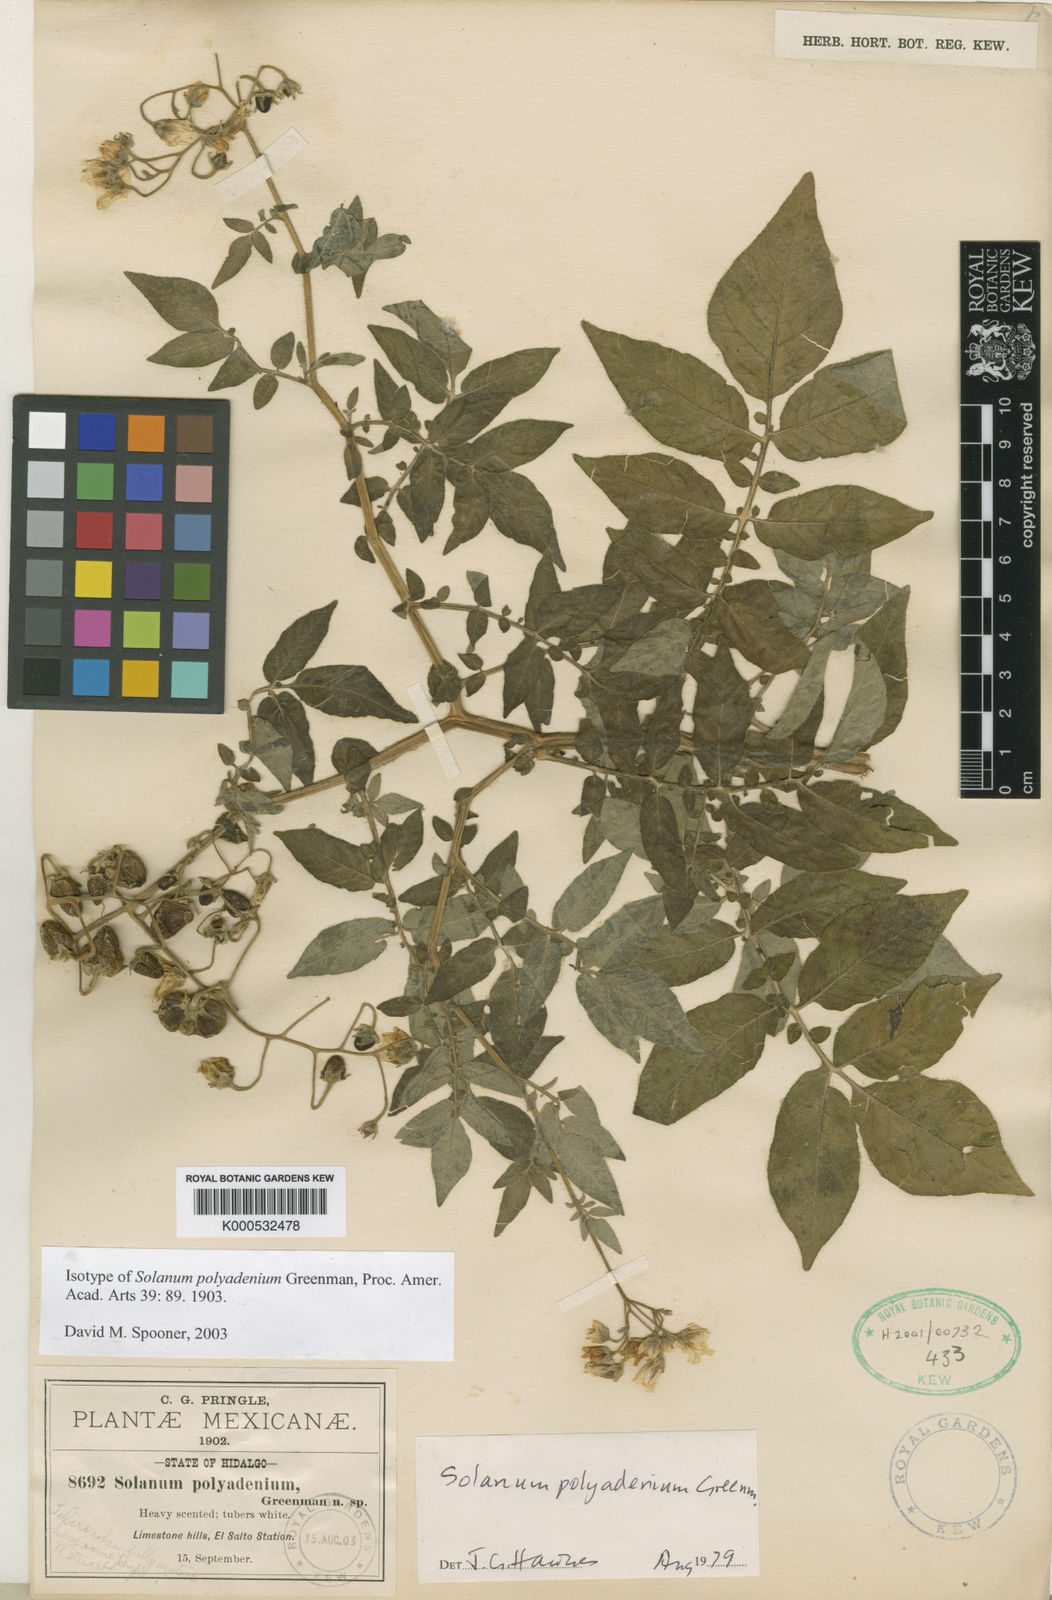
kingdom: Plantae
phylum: Tracheophyta
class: Magnoliopsida
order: Solanales
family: Solanaceae
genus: Solanum
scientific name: Solanum polyadenium
